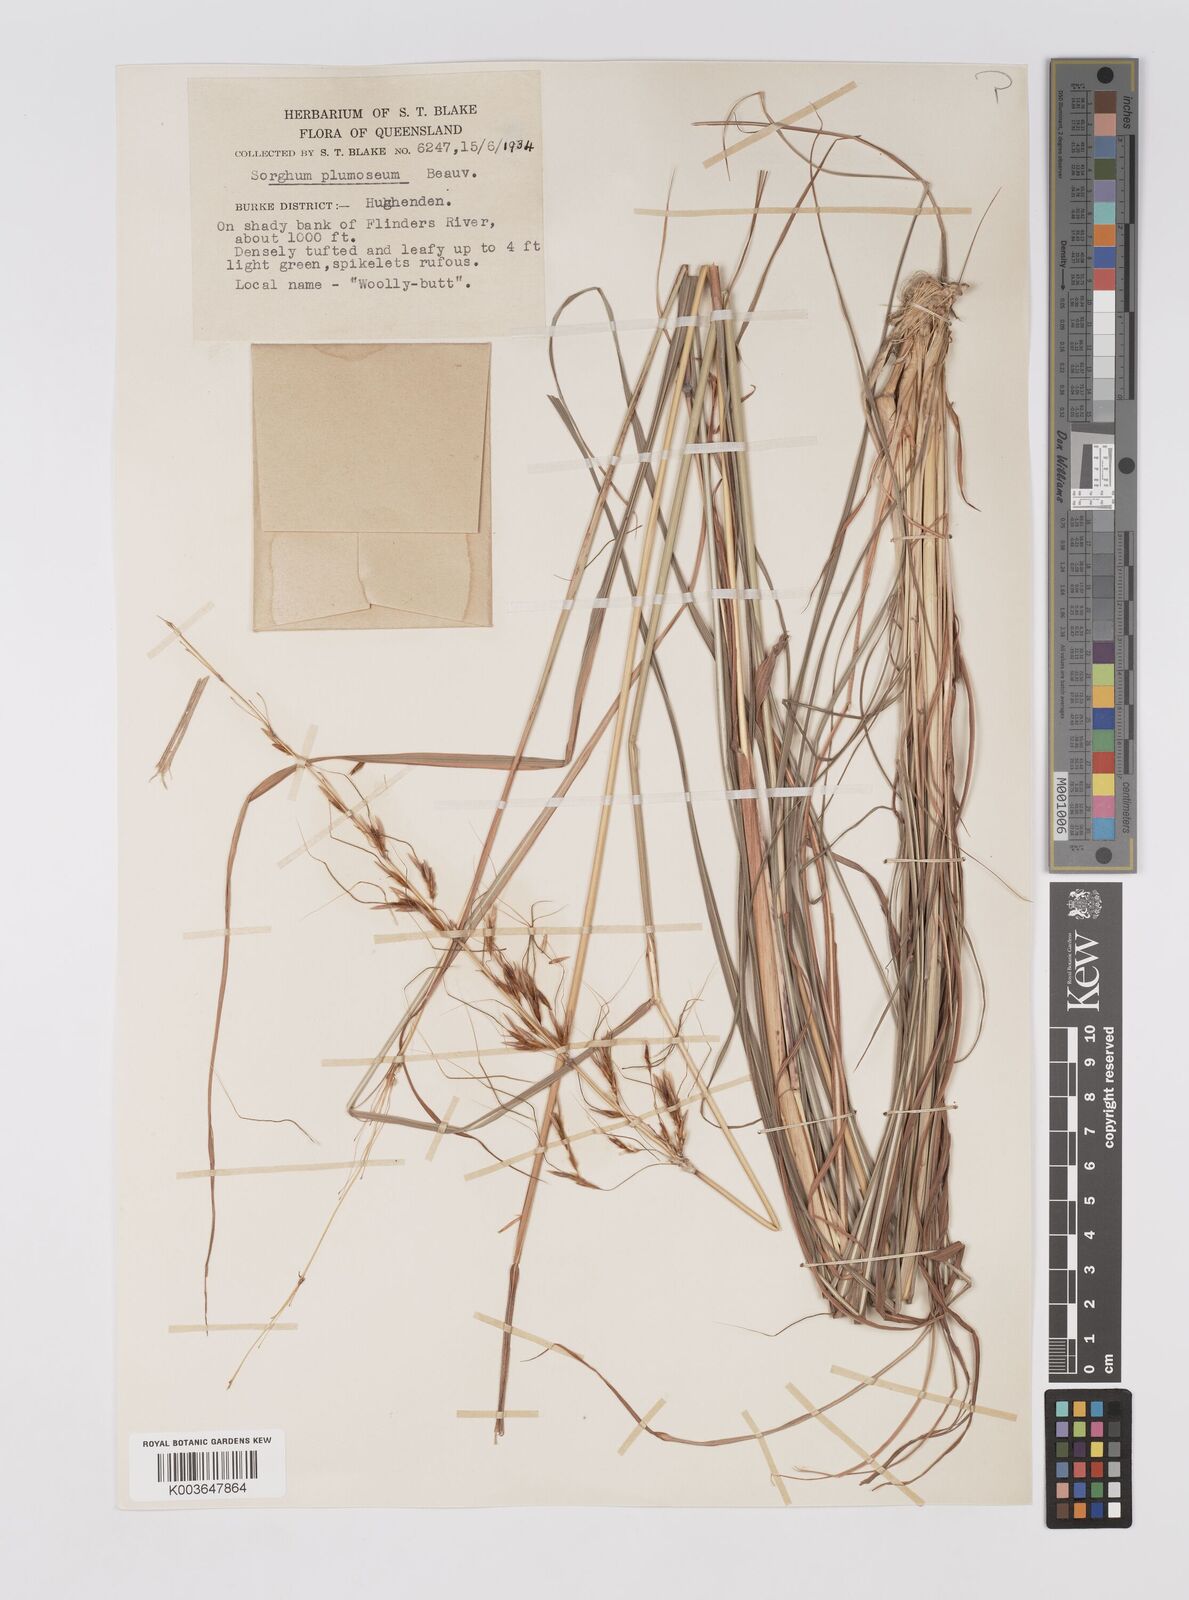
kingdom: Plantae
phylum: Tracheophyta
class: Liliopsida
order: Poales
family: Poaceae
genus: Sarga
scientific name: Sarga plumosa
